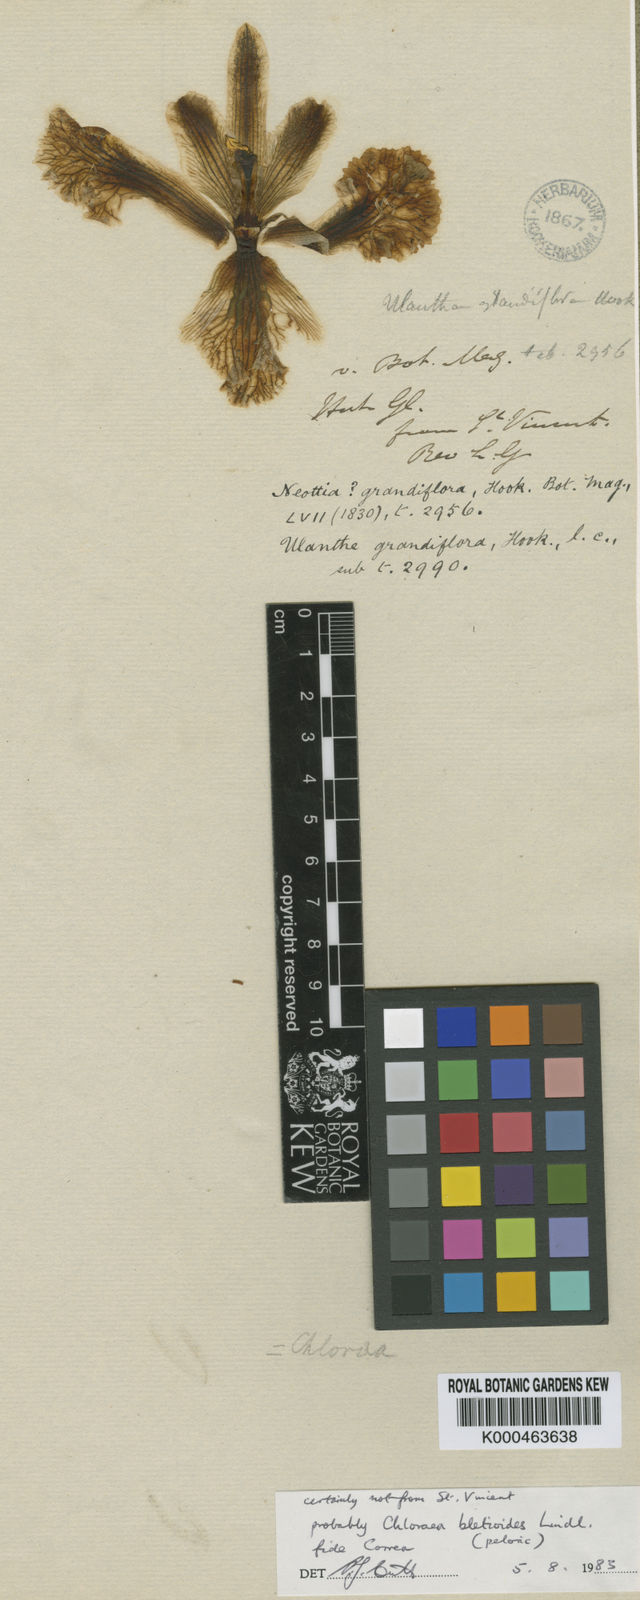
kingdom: Plantae
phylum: Tracheophyta
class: Liliopsida
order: Asparagales
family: Orchidaceae
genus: Chloraea
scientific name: Chloraea grandiflora
